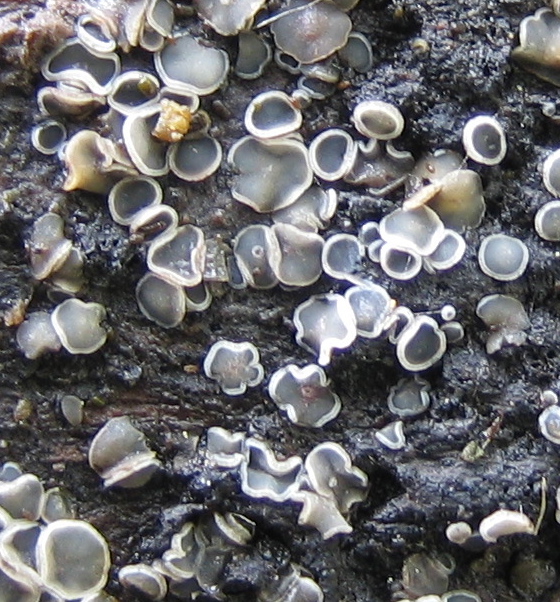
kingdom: Fungi
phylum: Ascomycota
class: Leotiomycetes
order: Helotiales
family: Mollisiaceae
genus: Mollisia
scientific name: Mollisia
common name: gråskive
